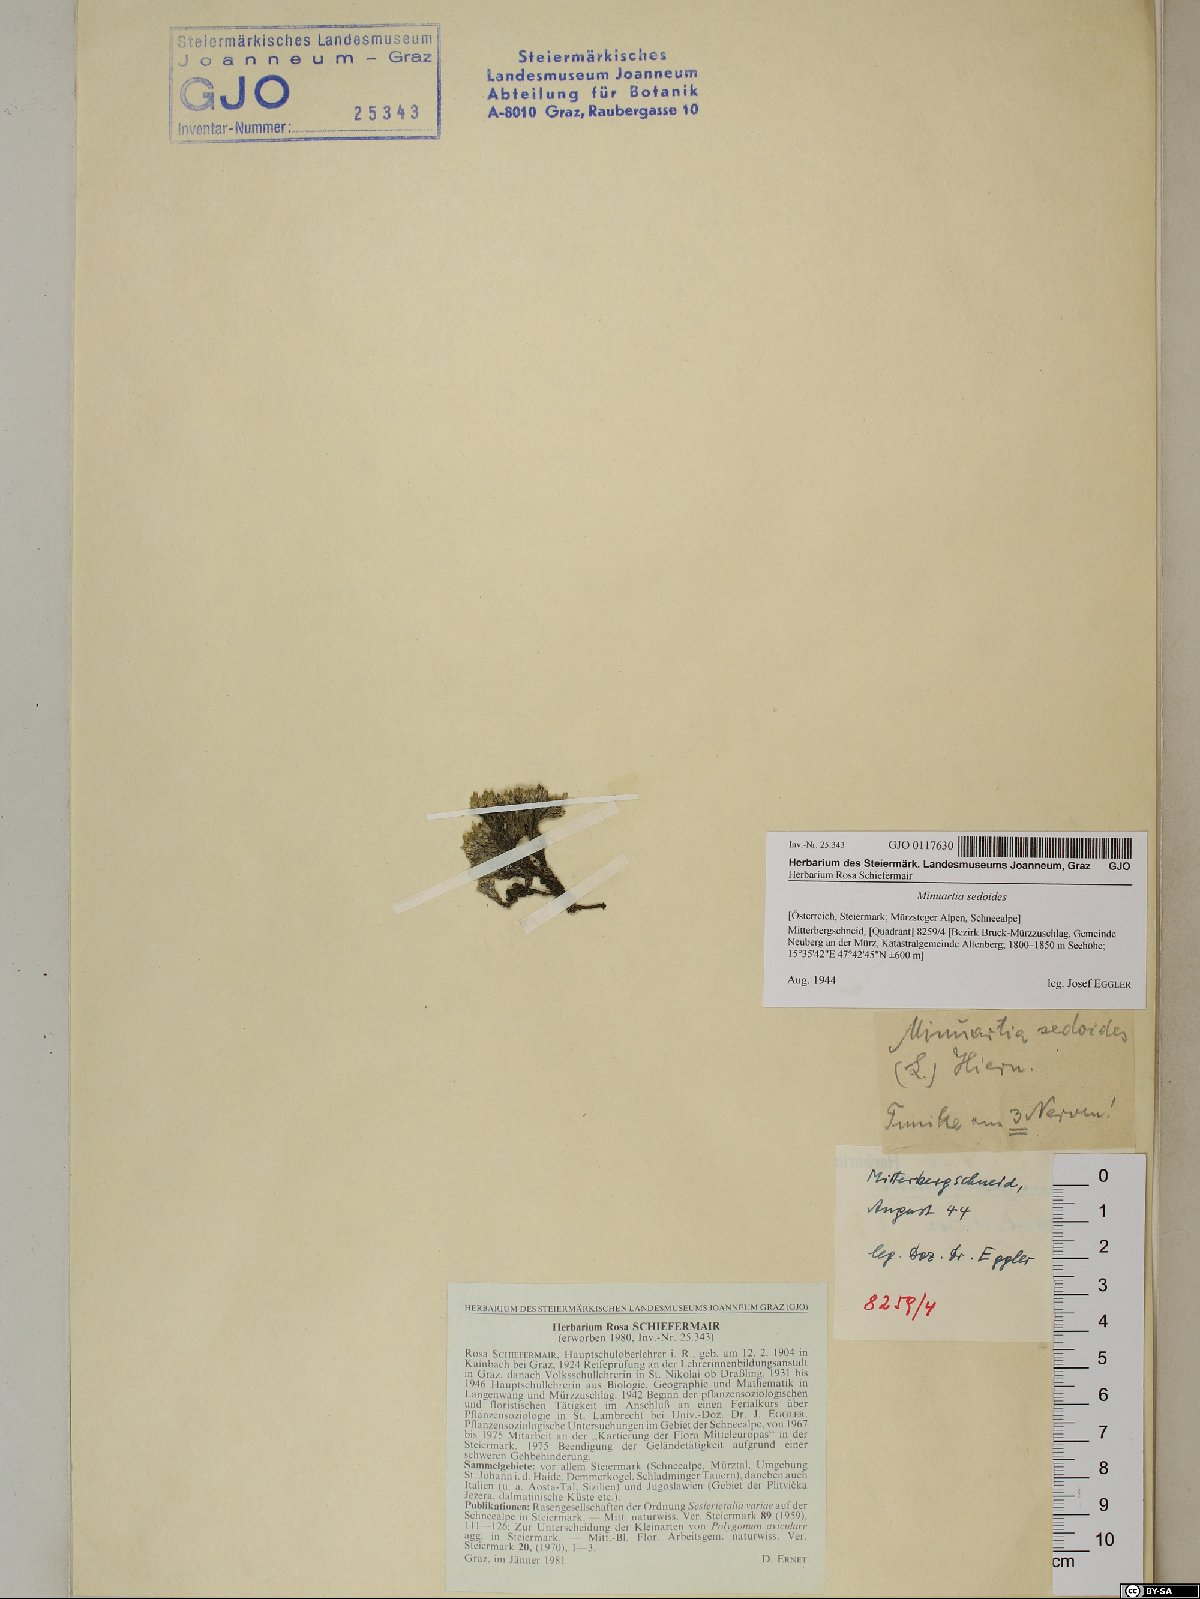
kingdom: Plantae
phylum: Tracheophyta
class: Magnoliopsida
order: Caryophyllales
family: Caryophyllaceae
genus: Cherleria
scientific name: Cherleria sedoides
